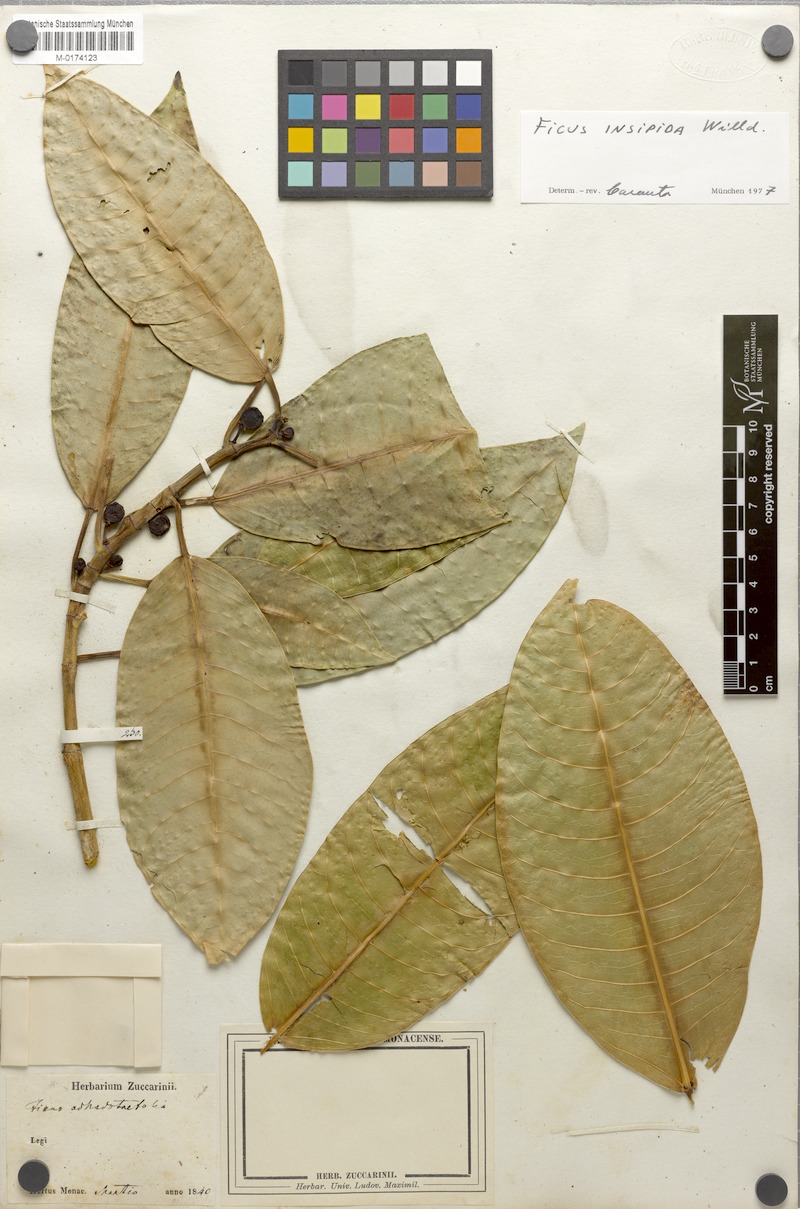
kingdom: Plantae
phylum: Tracheophyta
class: Magnoliopsida
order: Rosales
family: Moraceae
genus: Ficus
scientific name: Ficus insipida
